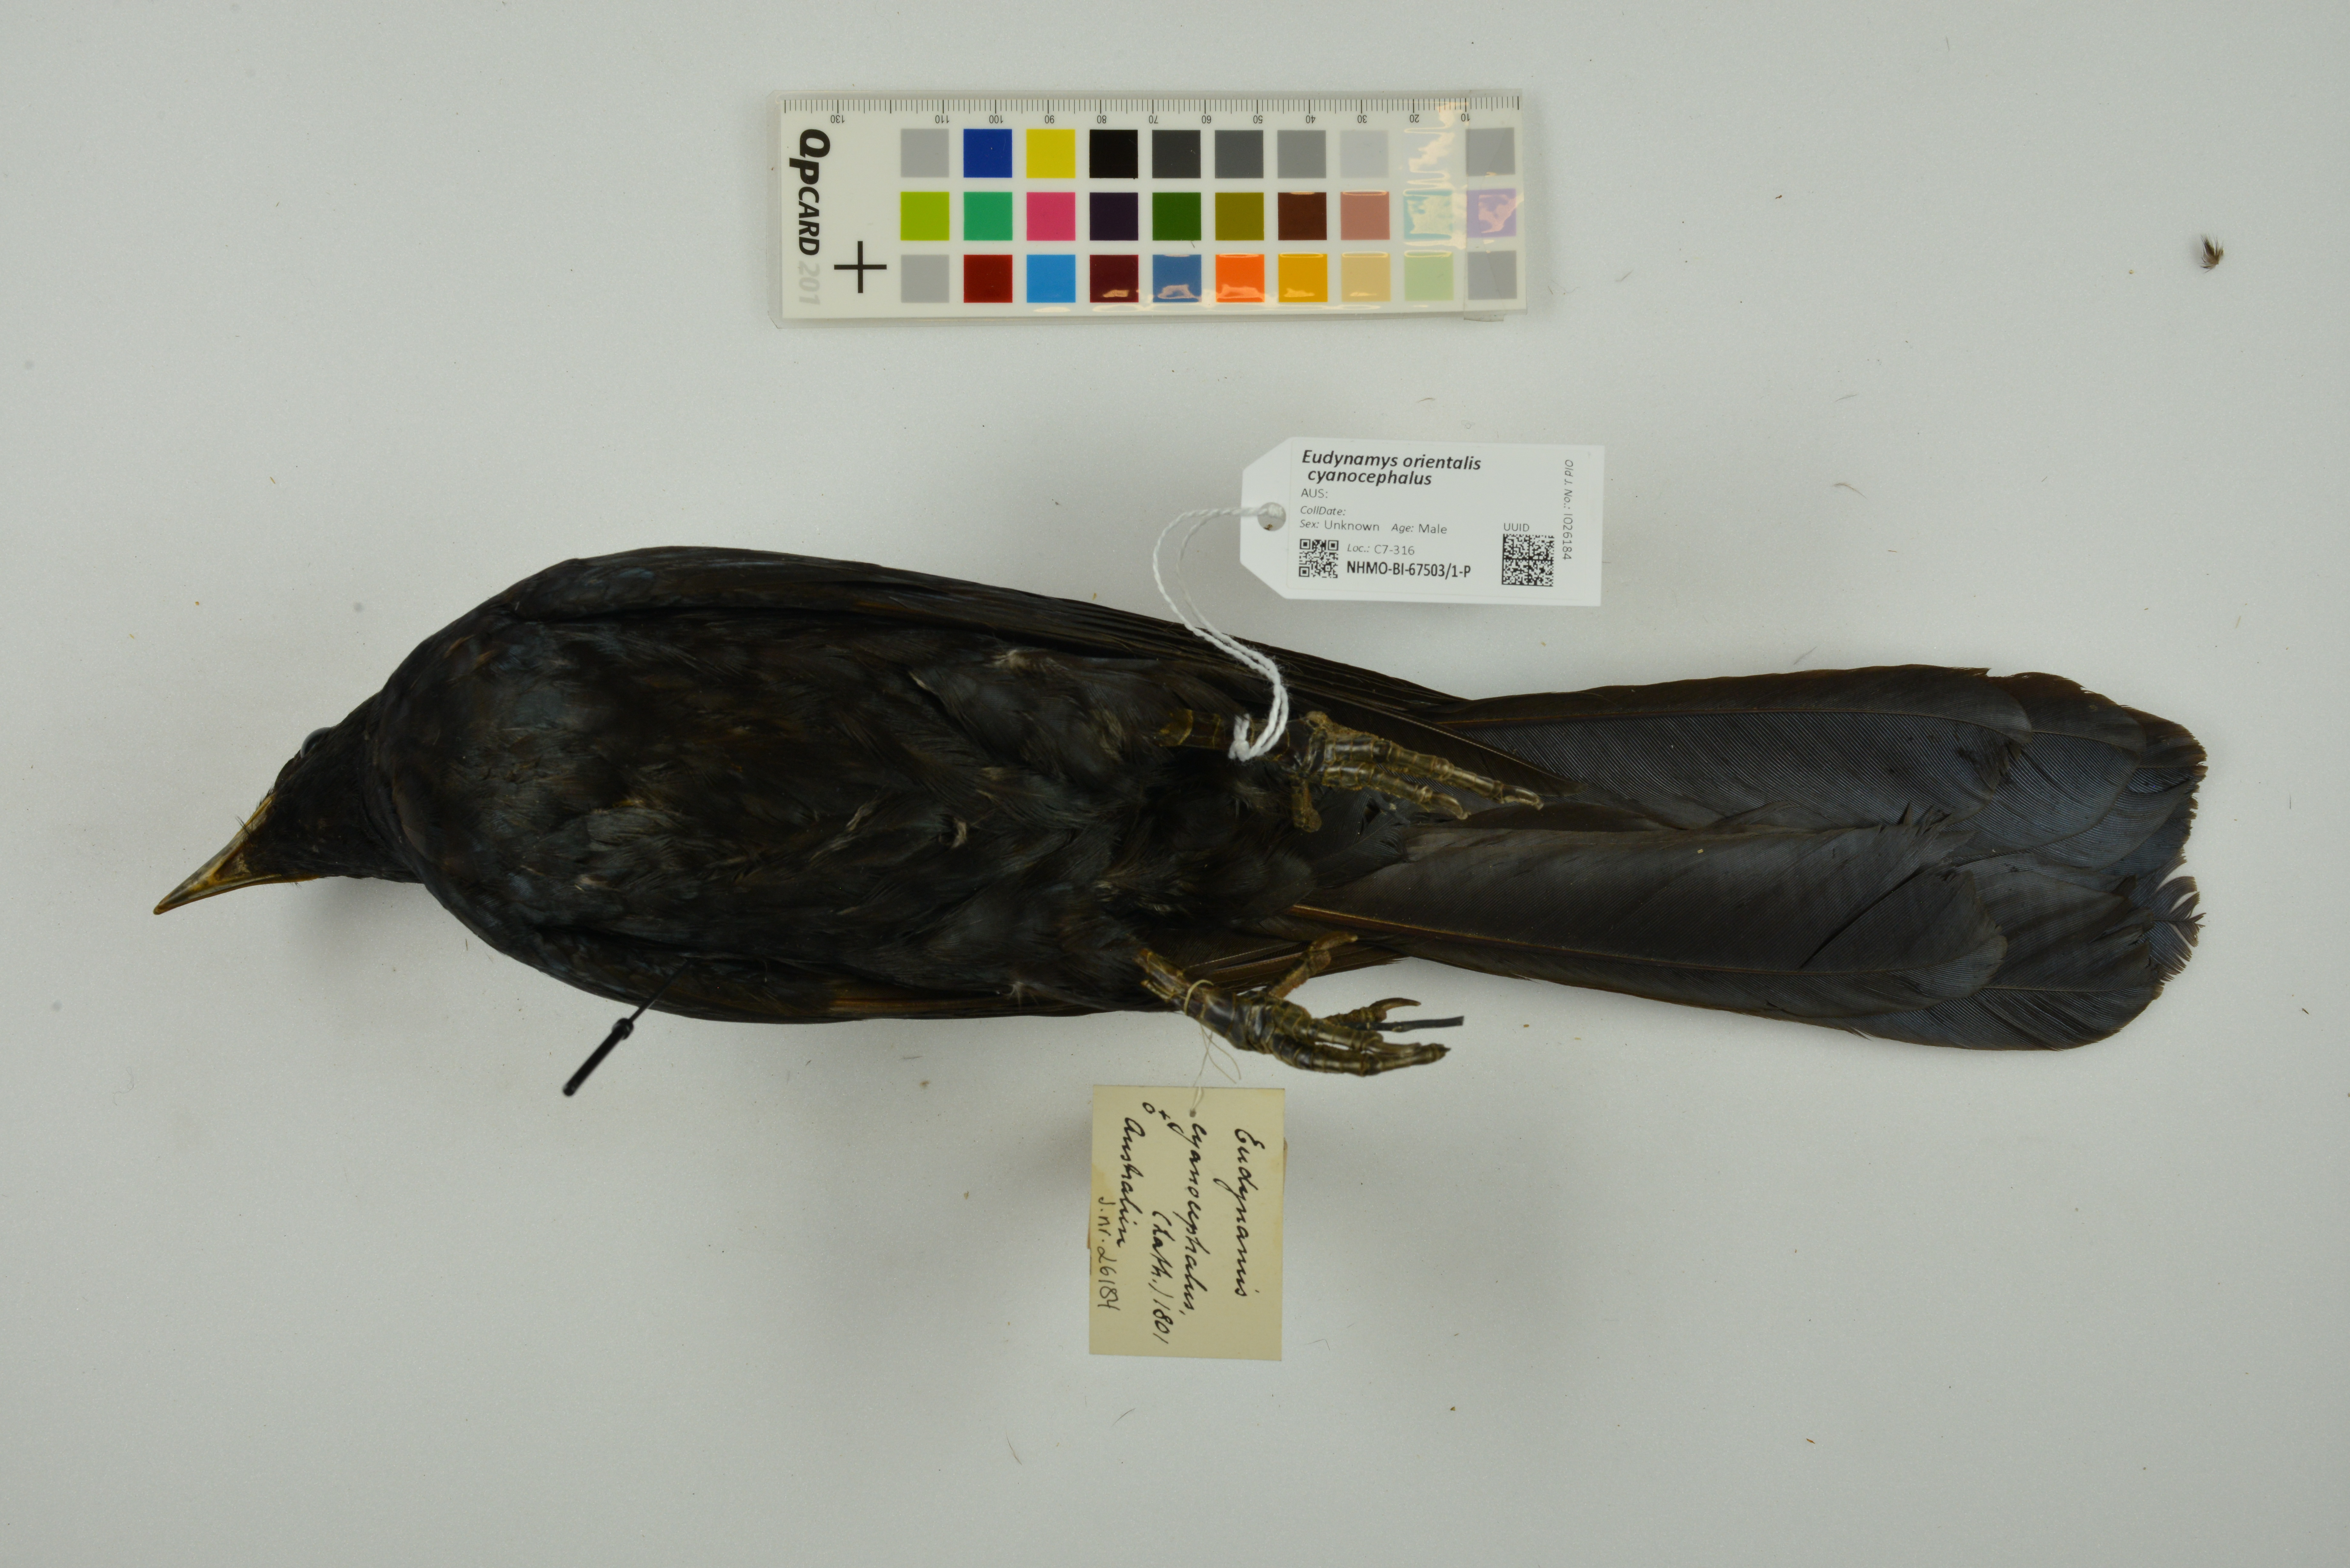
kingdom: Animalia
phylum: Chordata
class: Aves
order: Cuculiformes
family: Cuculidae
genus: Eudynamys
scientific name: Eudynamys scolopaceus
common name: Asian koel
